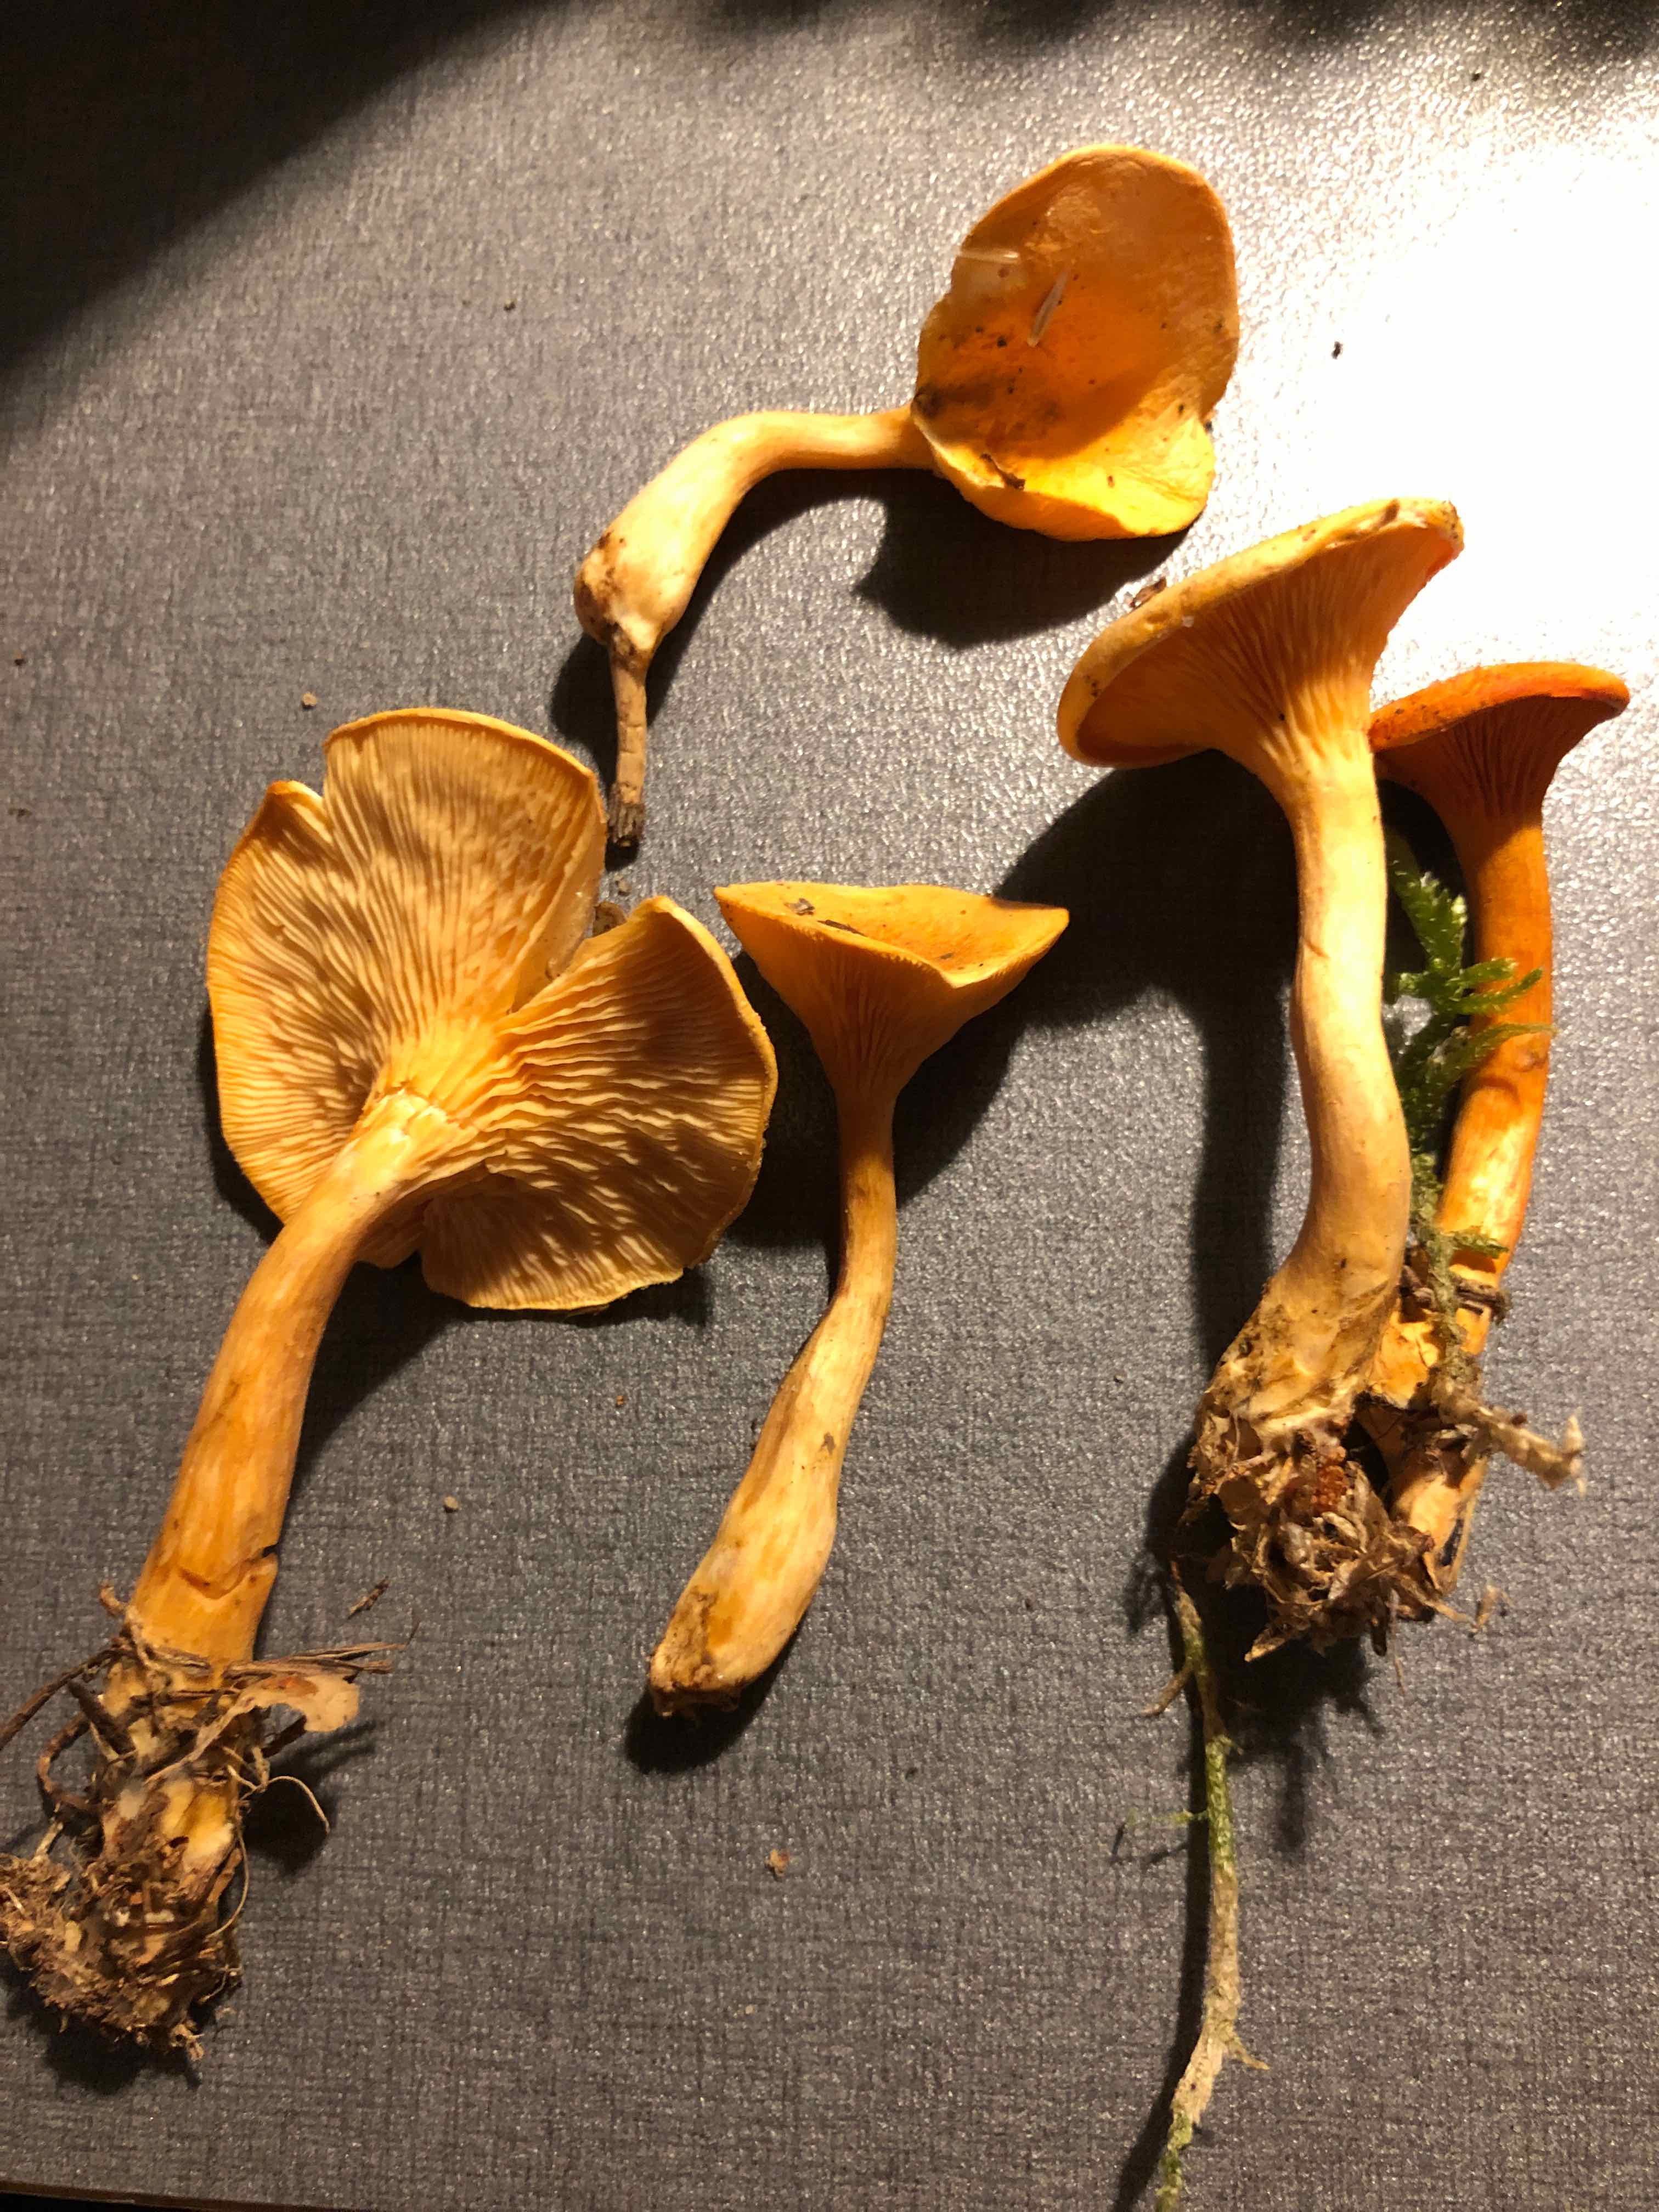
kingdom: Fungi
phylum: Basidiomycota
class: Agaricomycetes
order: Boletales
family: Hygrophoropsidaceae
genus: Hygrophoropsis
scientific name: Hygrophoropsis aurantiaca
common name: almindelig orangekantarel
